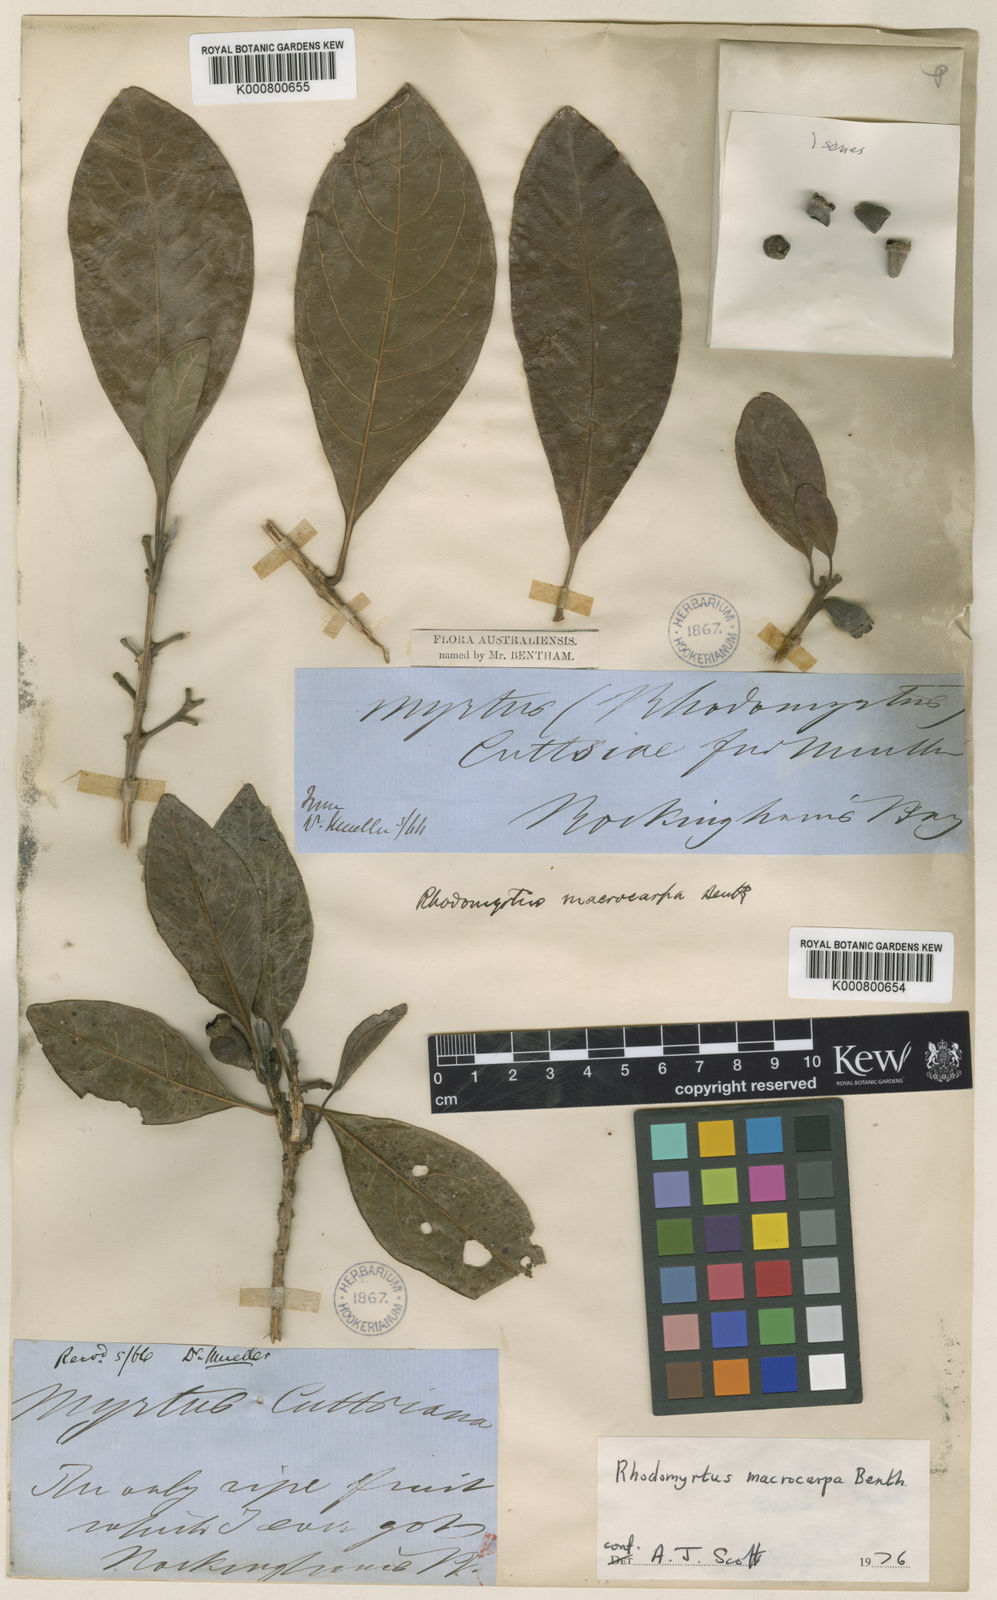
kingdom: Plantae
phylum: Tracheophyta
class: Magnoliopsida
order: Myrtales
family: Myrtaceae
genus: Rhodomyrtus
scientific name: Rhodomyrtus macrocarpa
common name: Finger-cherry
